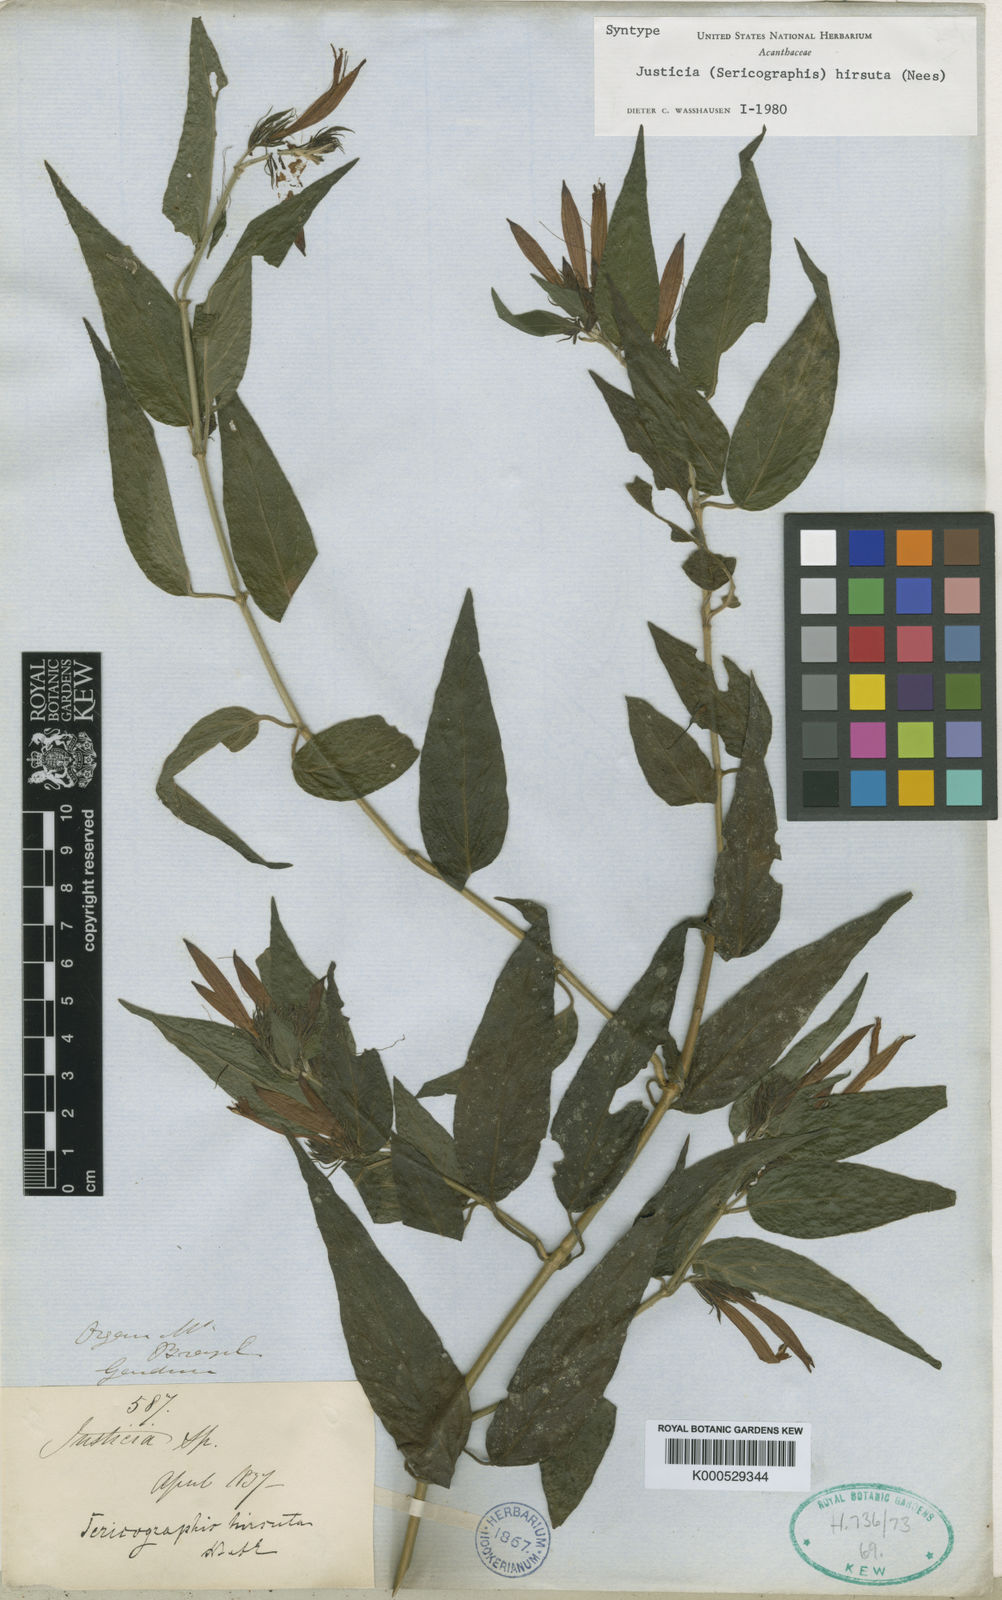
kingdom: Plantae
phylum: Tracheophyta
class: Magnoliopsida
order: Lamiales
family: Acanthaceae
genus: Justicia
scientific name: Justicia monticola
